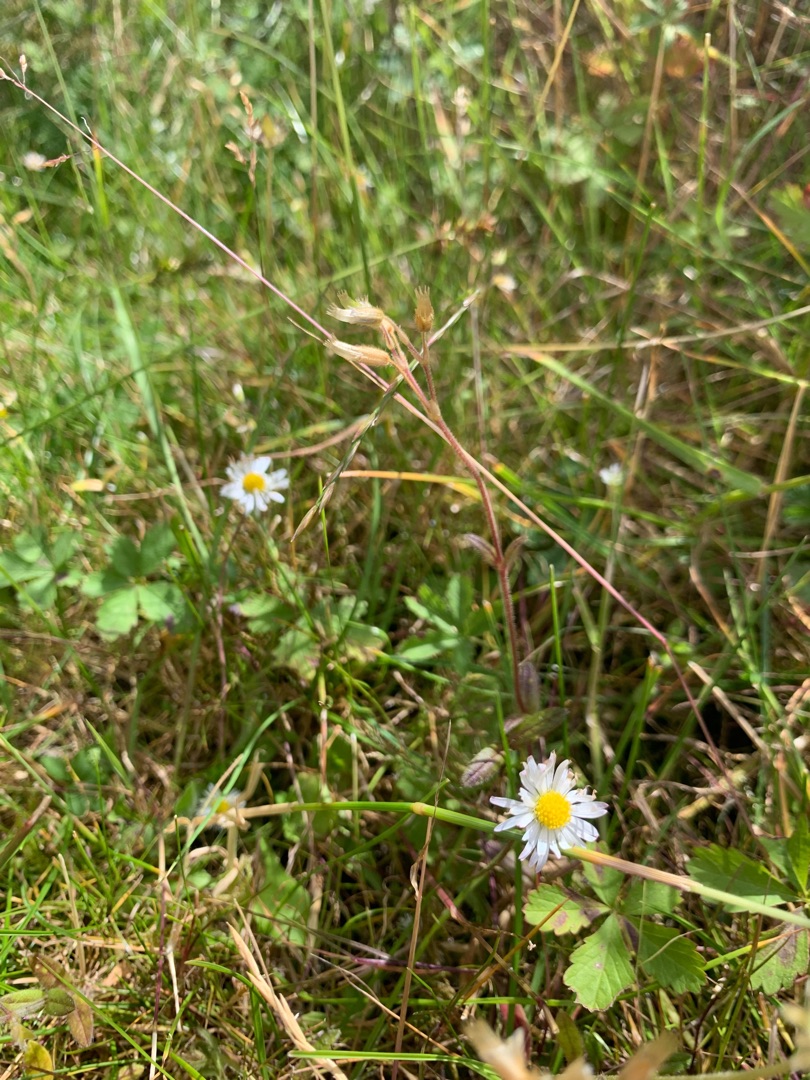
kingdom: Plantae
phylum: Tracheophyta
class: Magnoliopsida
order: Asterales
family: Asteraceae
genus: Bellis
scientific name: Bellis perennis
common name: Tusindfryd
